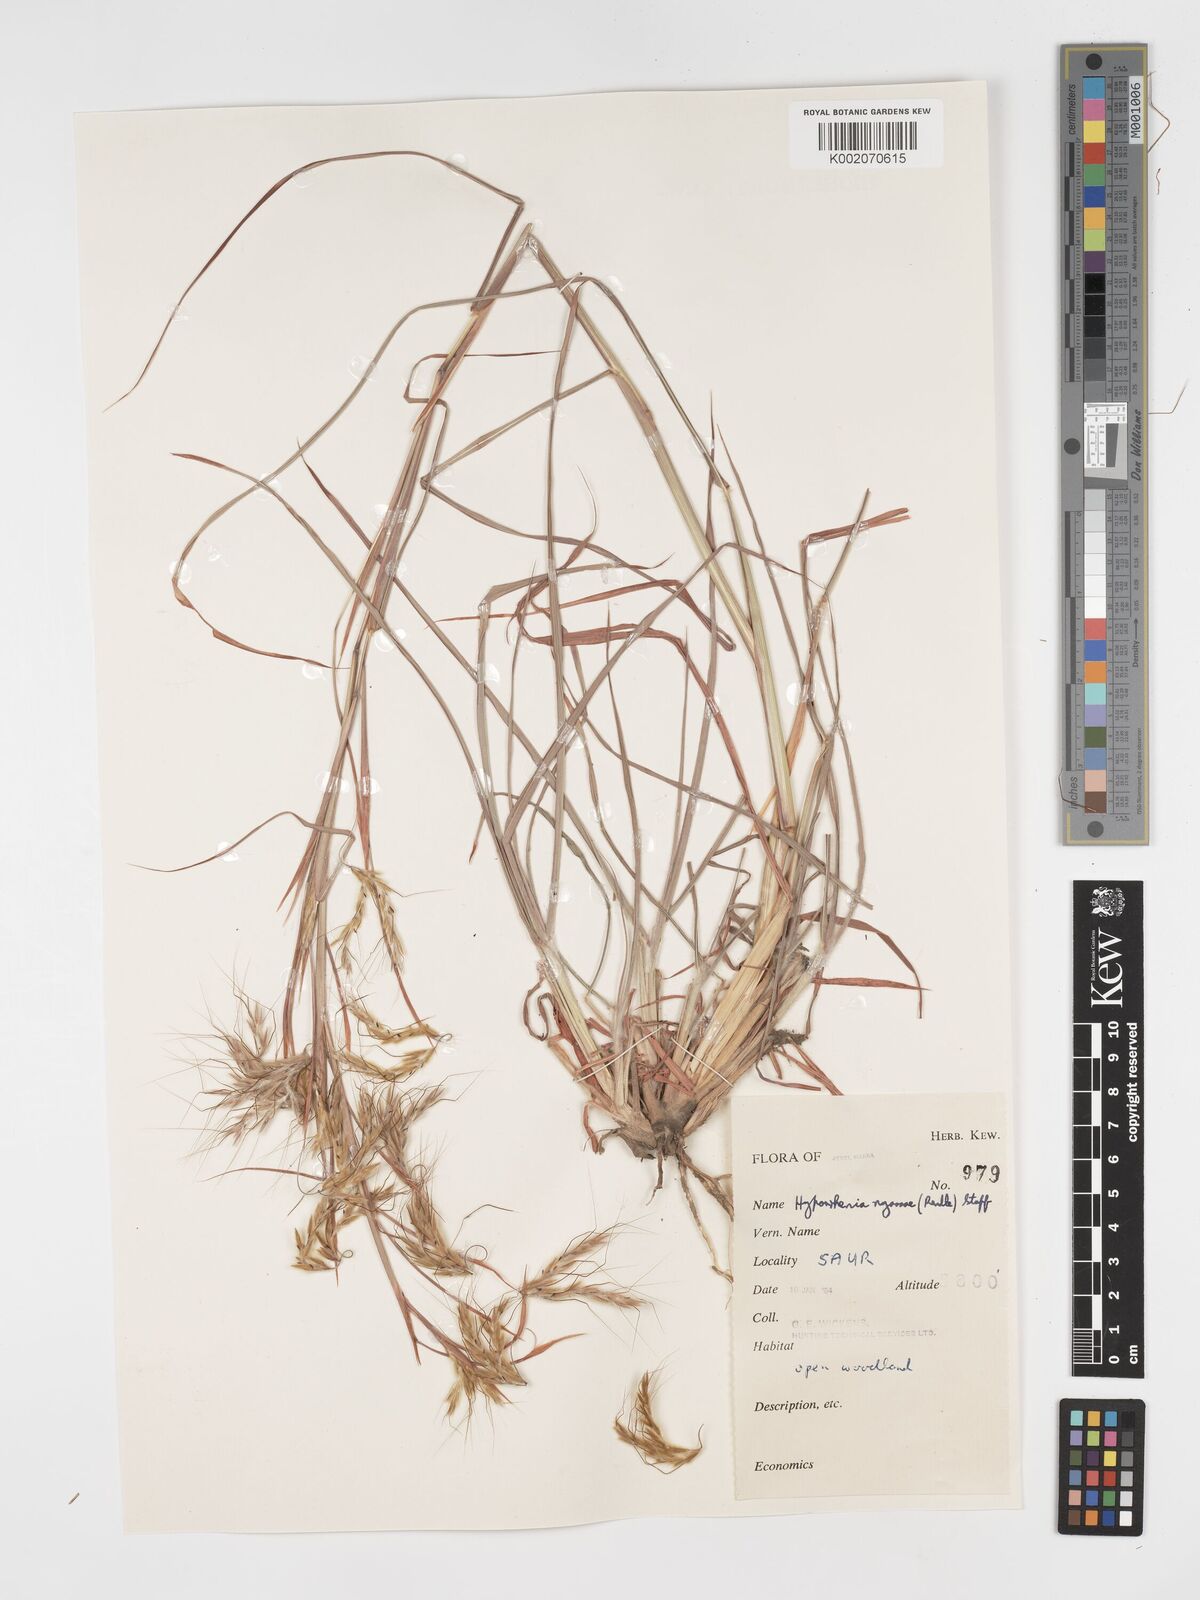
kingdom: Plantae
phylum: Tracheophyta
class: Liliopsida
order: Poales
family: Poaceae
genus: Hyparrhenia
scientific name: Hyparrhenia nyassae
